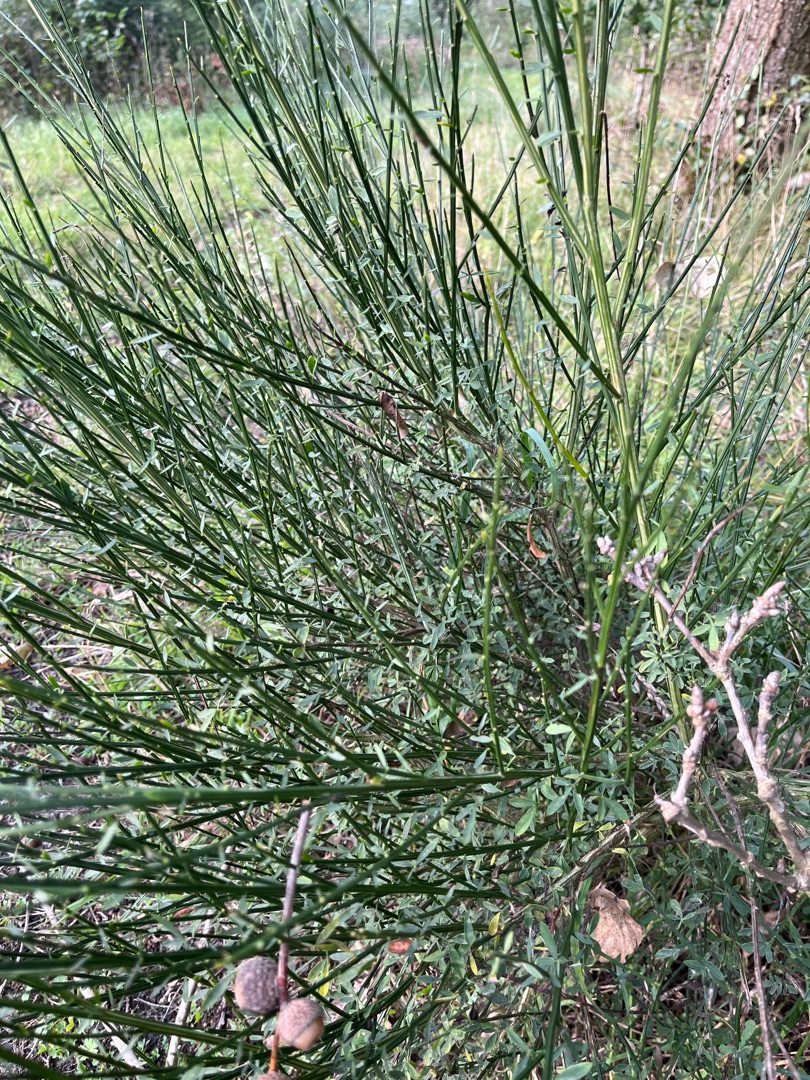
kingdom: Plantae
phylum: Tracheophyta
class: Magnoliopsida
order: Fabales
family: Fabaceae
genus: Cytisus
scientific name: Cytisus scoparius
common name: Almindelig gyvel
